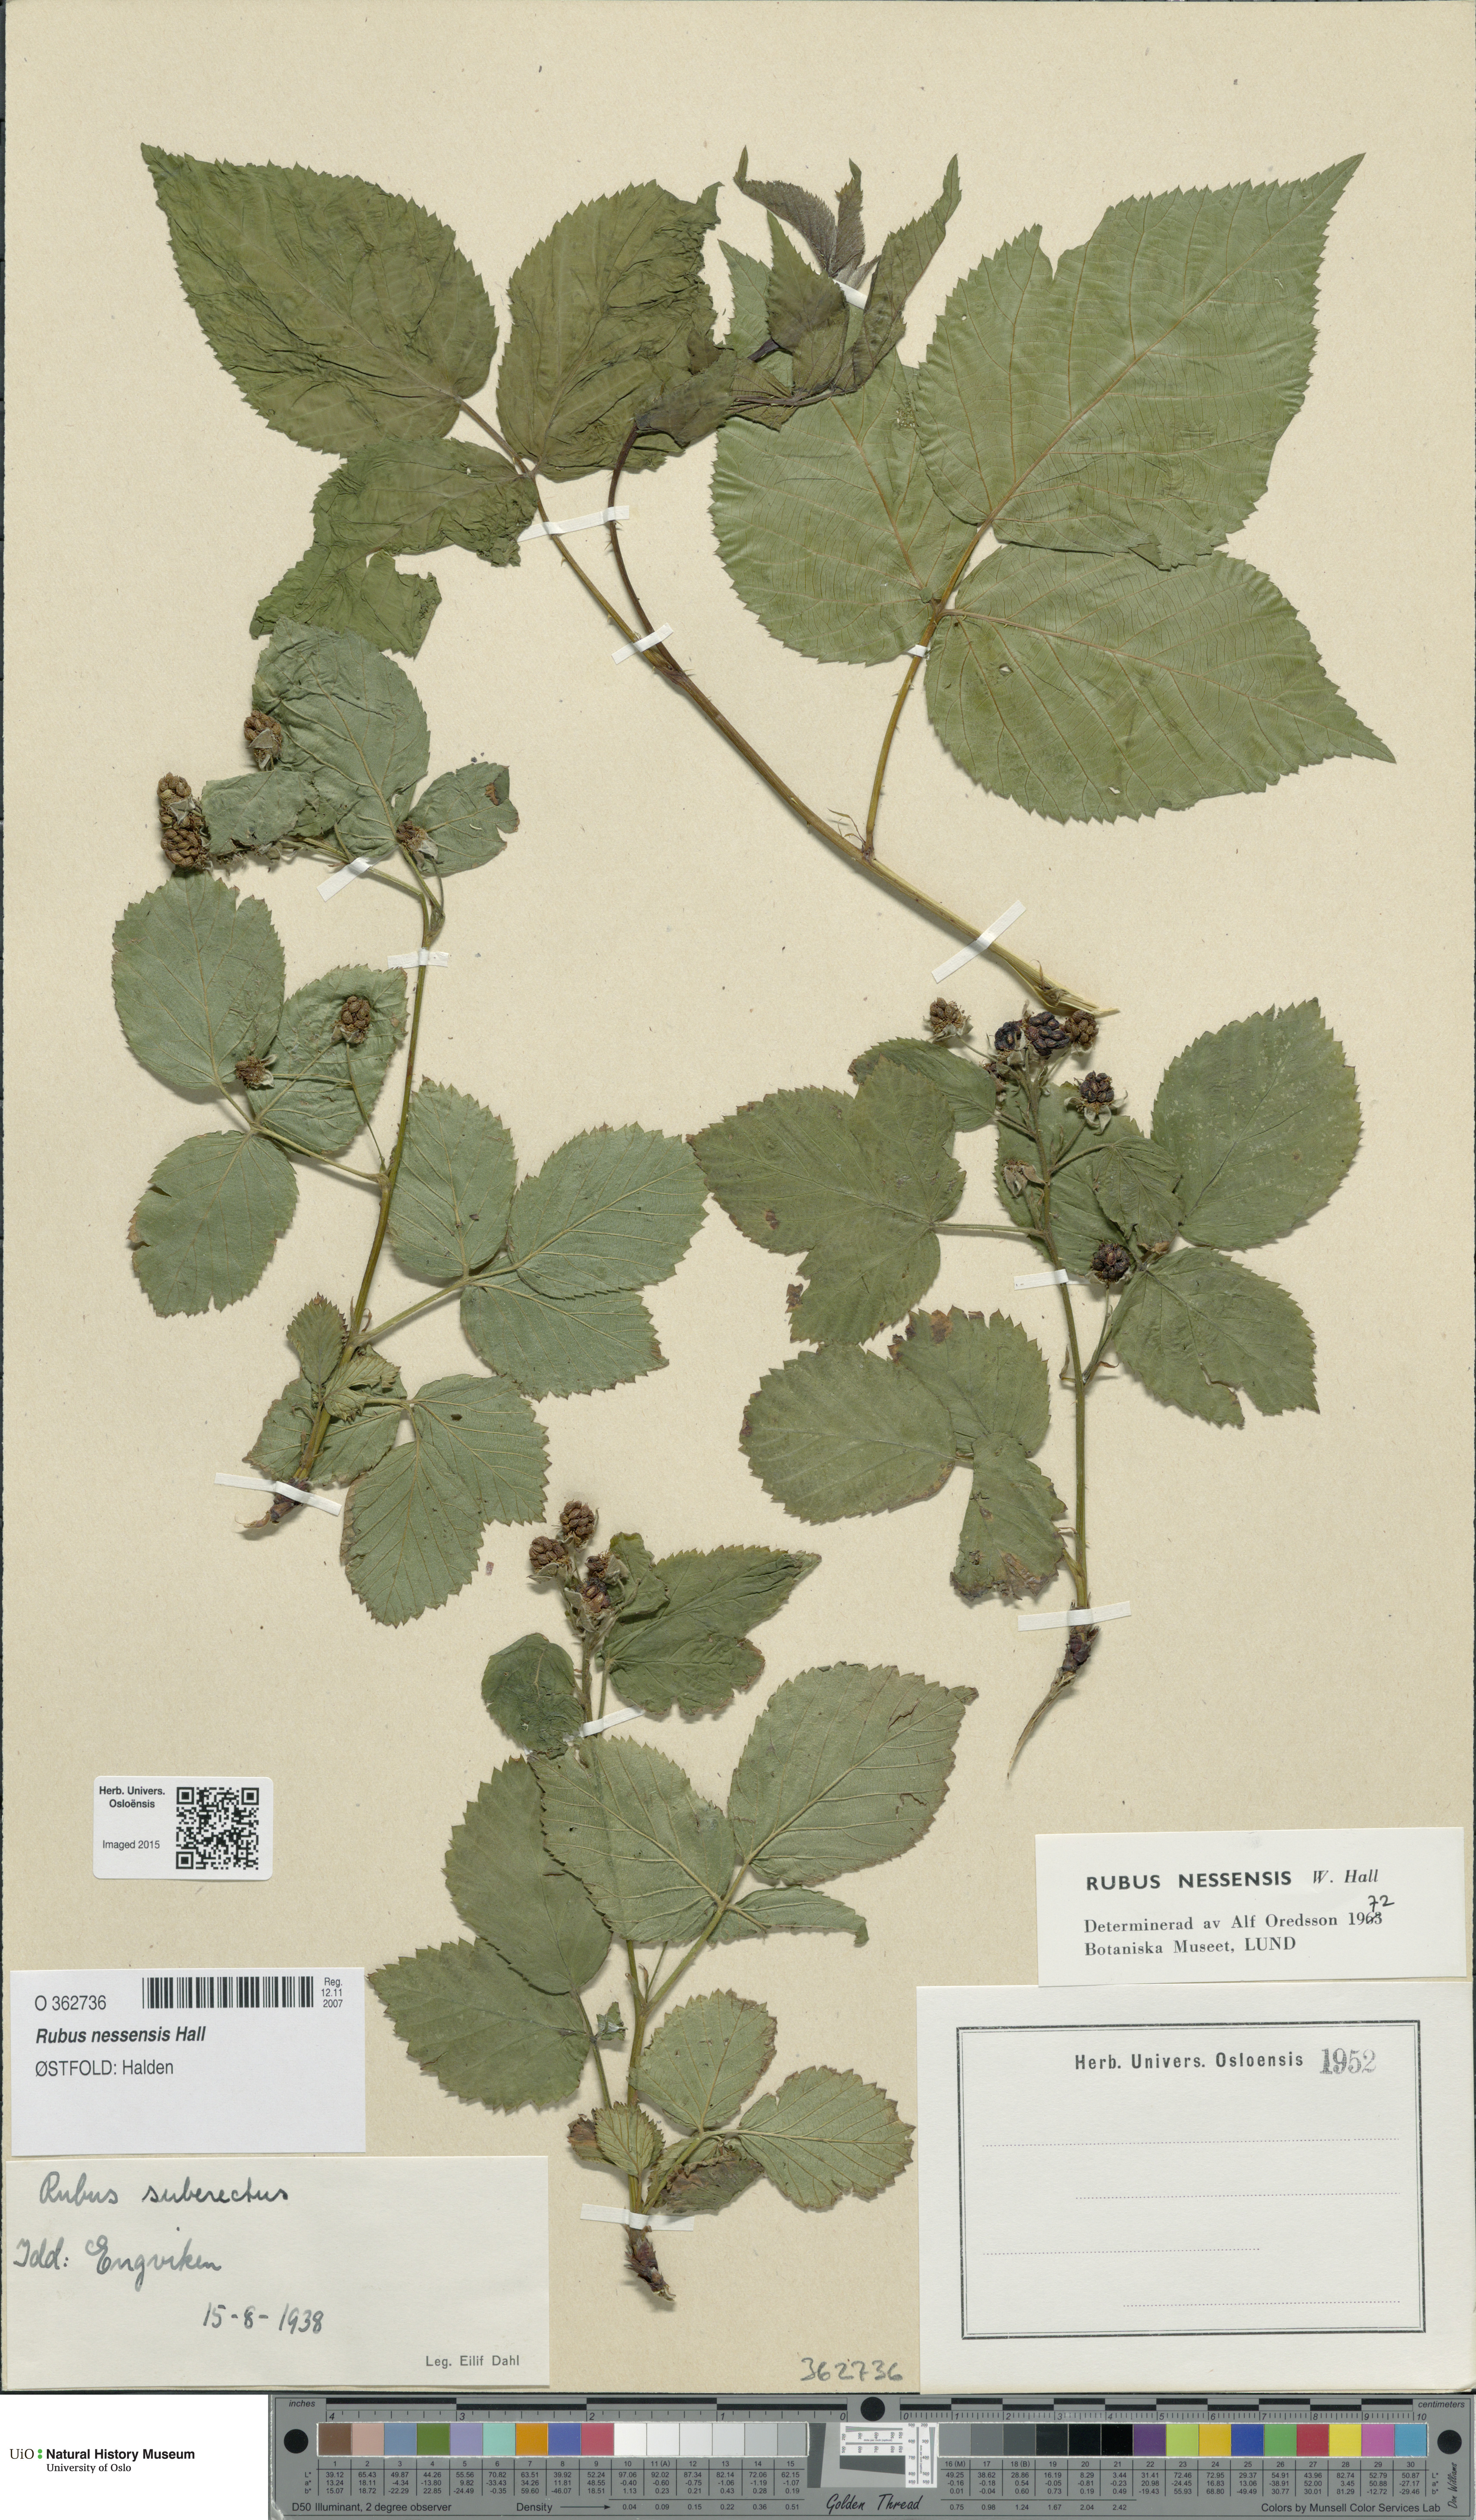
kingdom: Plantae
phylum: Tracheophyta
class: Magnoliopsida
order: Rosales
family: Rosaceae
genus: Rubus
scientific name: Rubus polonicus
